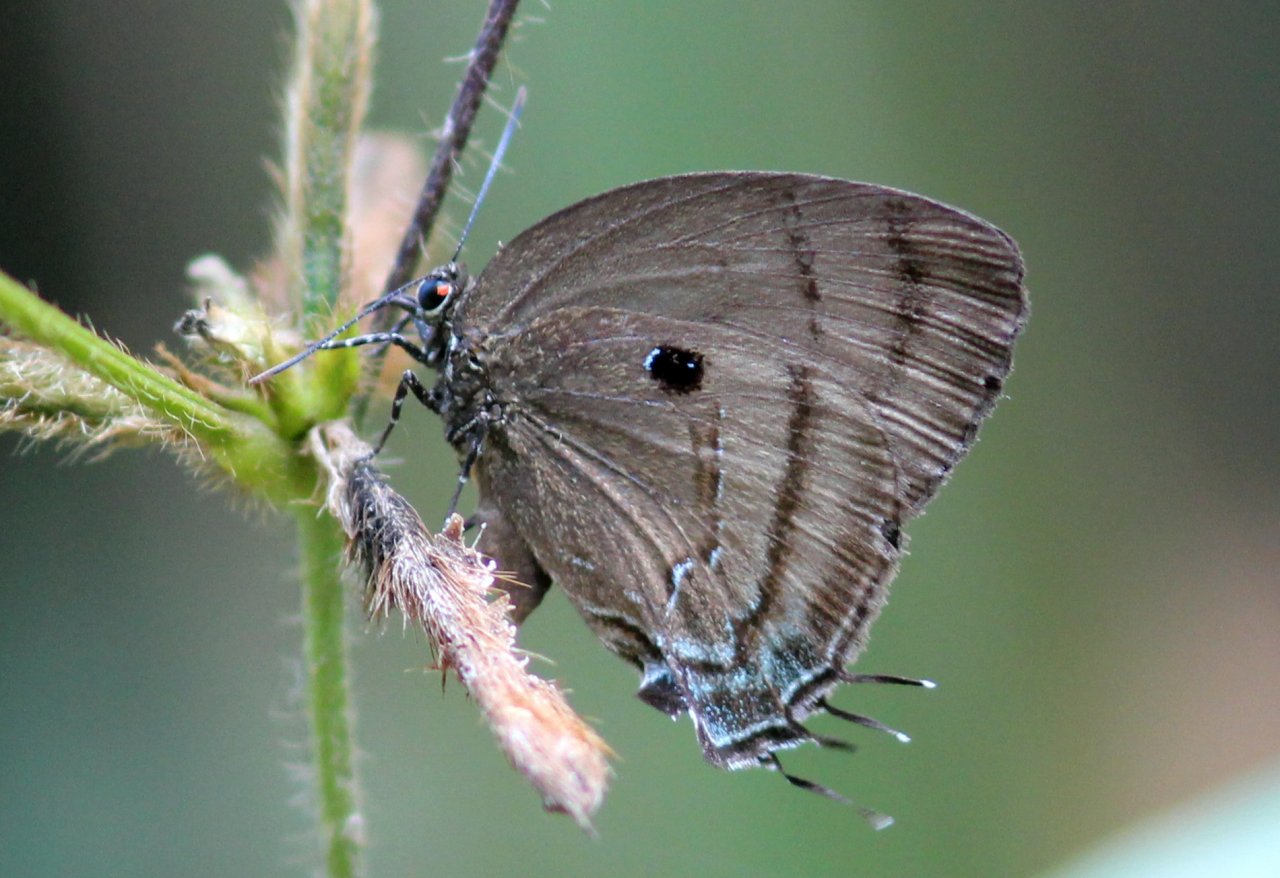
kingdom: Animalia
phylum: Arthropoda
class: Insecta
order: Lepidoptera
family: Lycaenidae
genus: Thecla
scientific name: Thecla hemon
